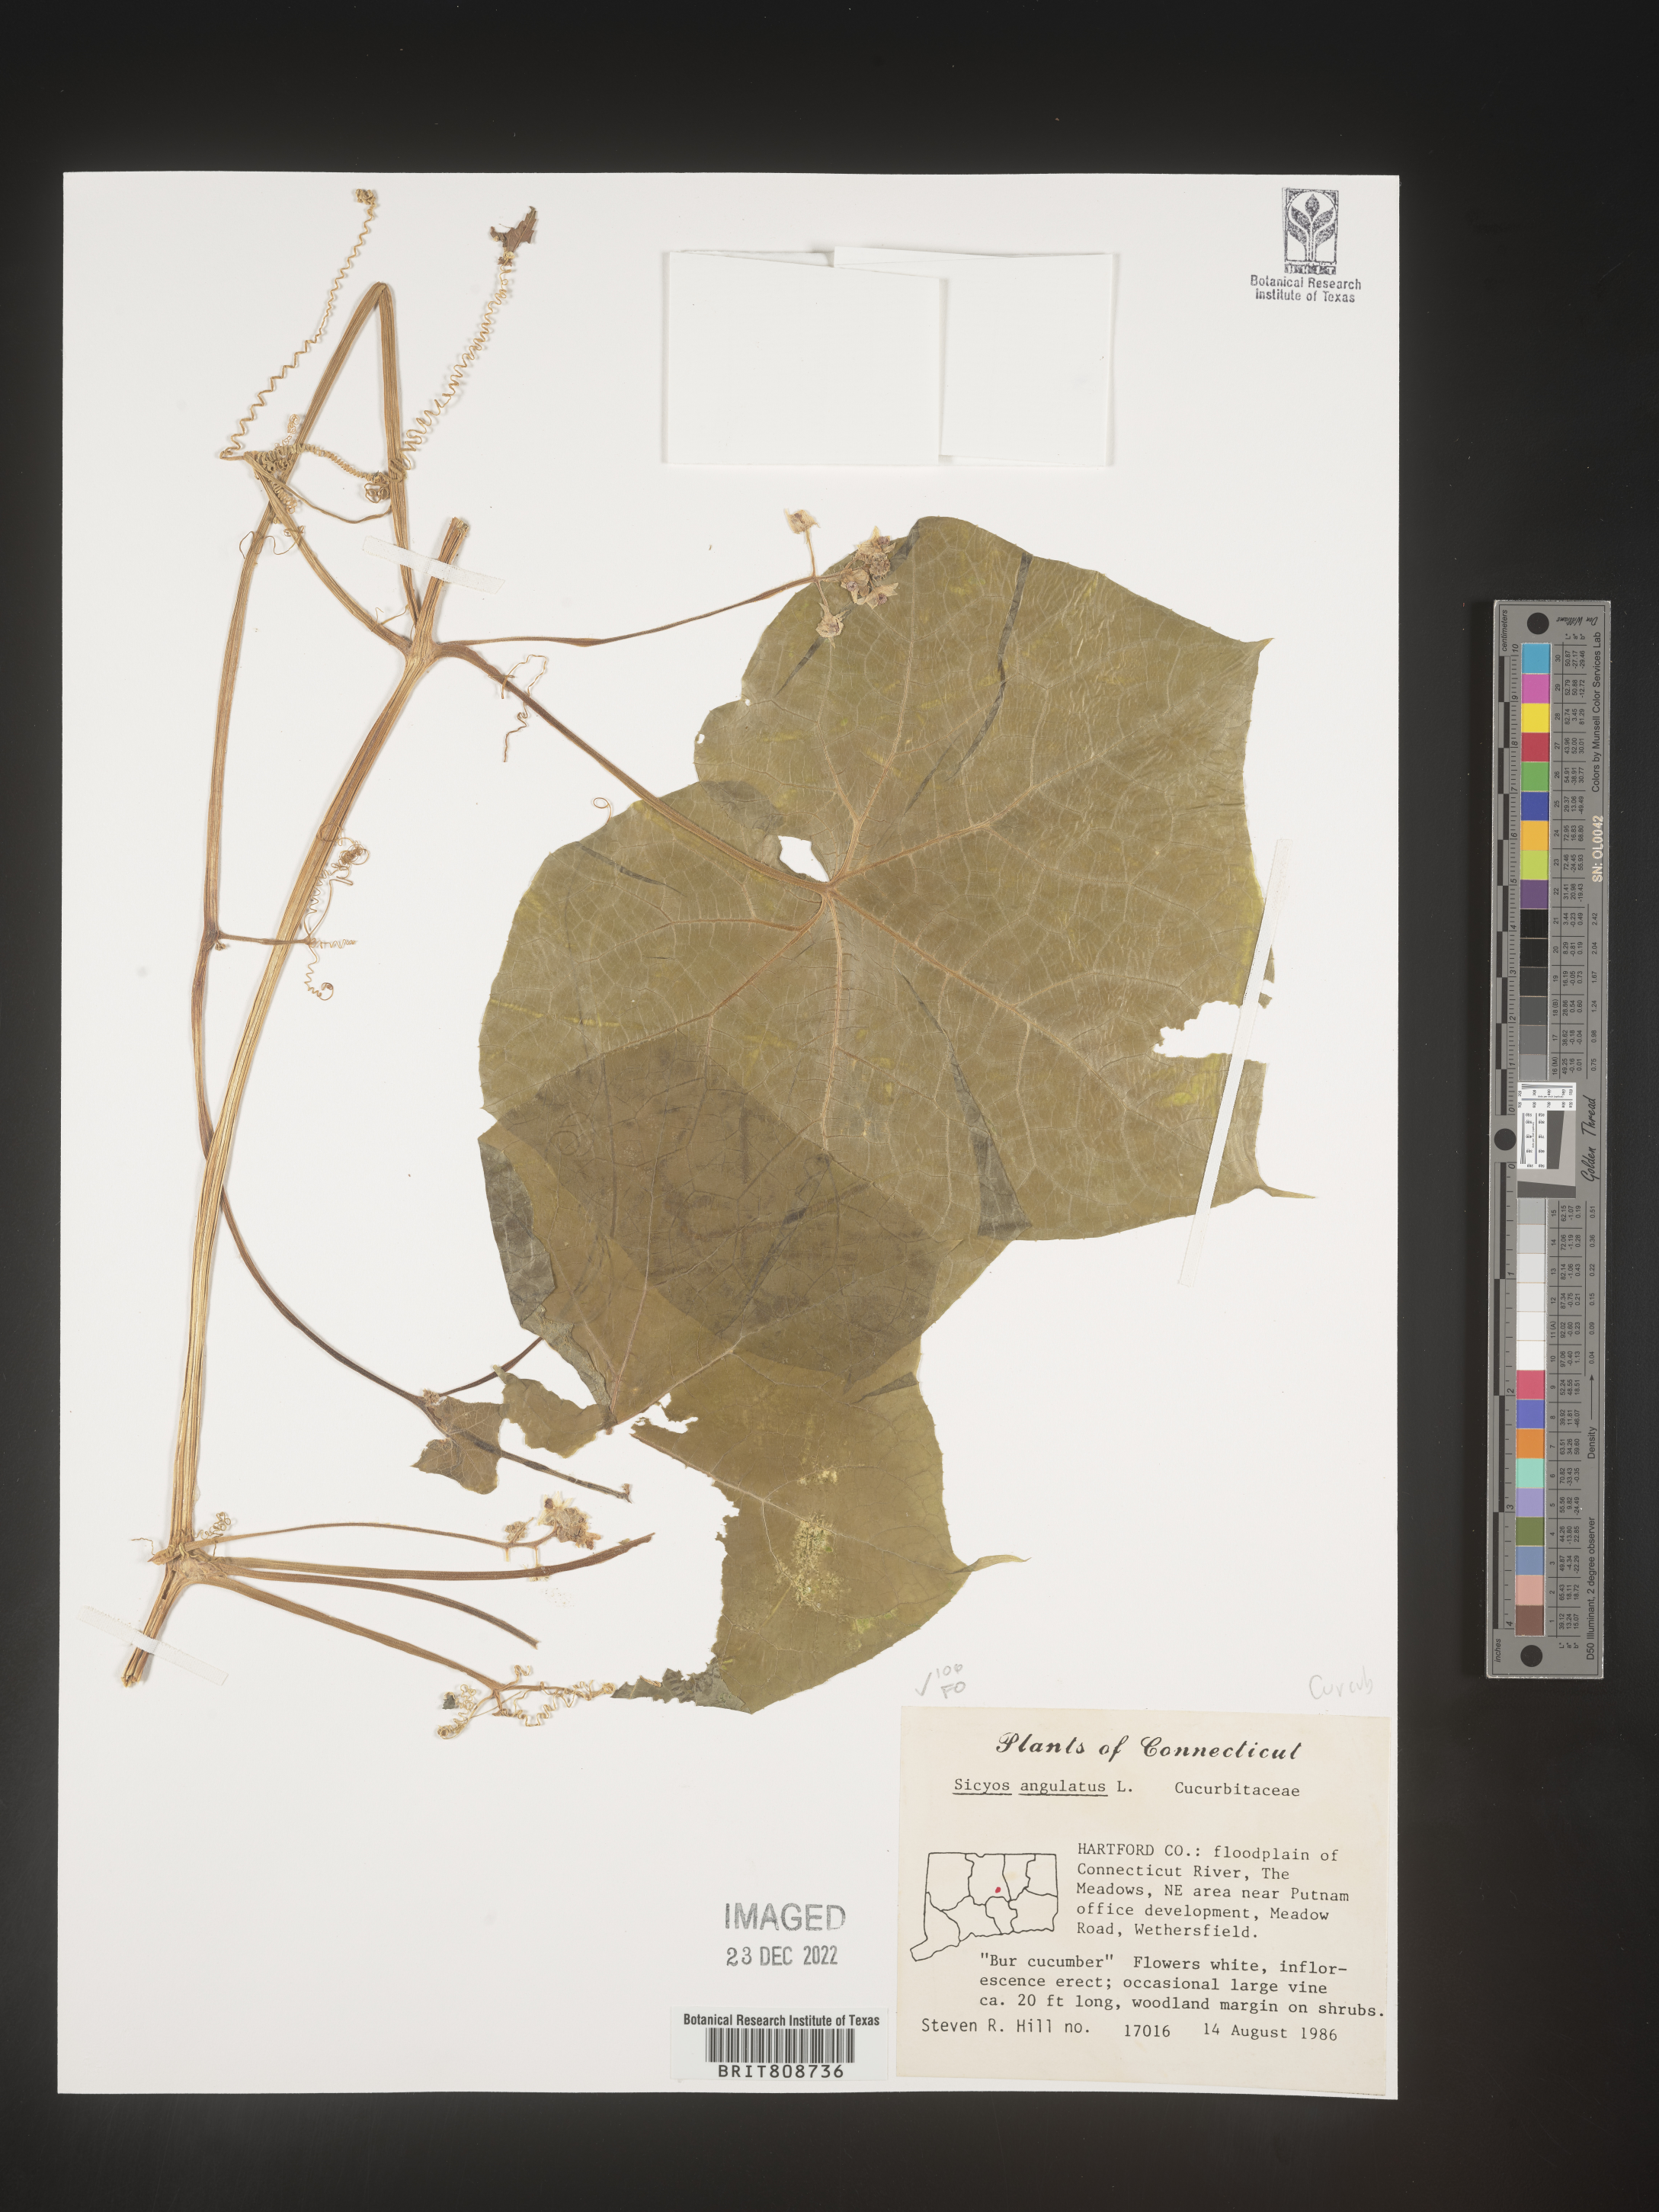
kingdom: Plantae
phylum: Tracheophyta
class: Magnoliopsida
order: Cucurbitales
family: Cucurbitaceae
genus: Sicyos
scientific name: Sicyos angulatus
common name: Angled burr cucumber
